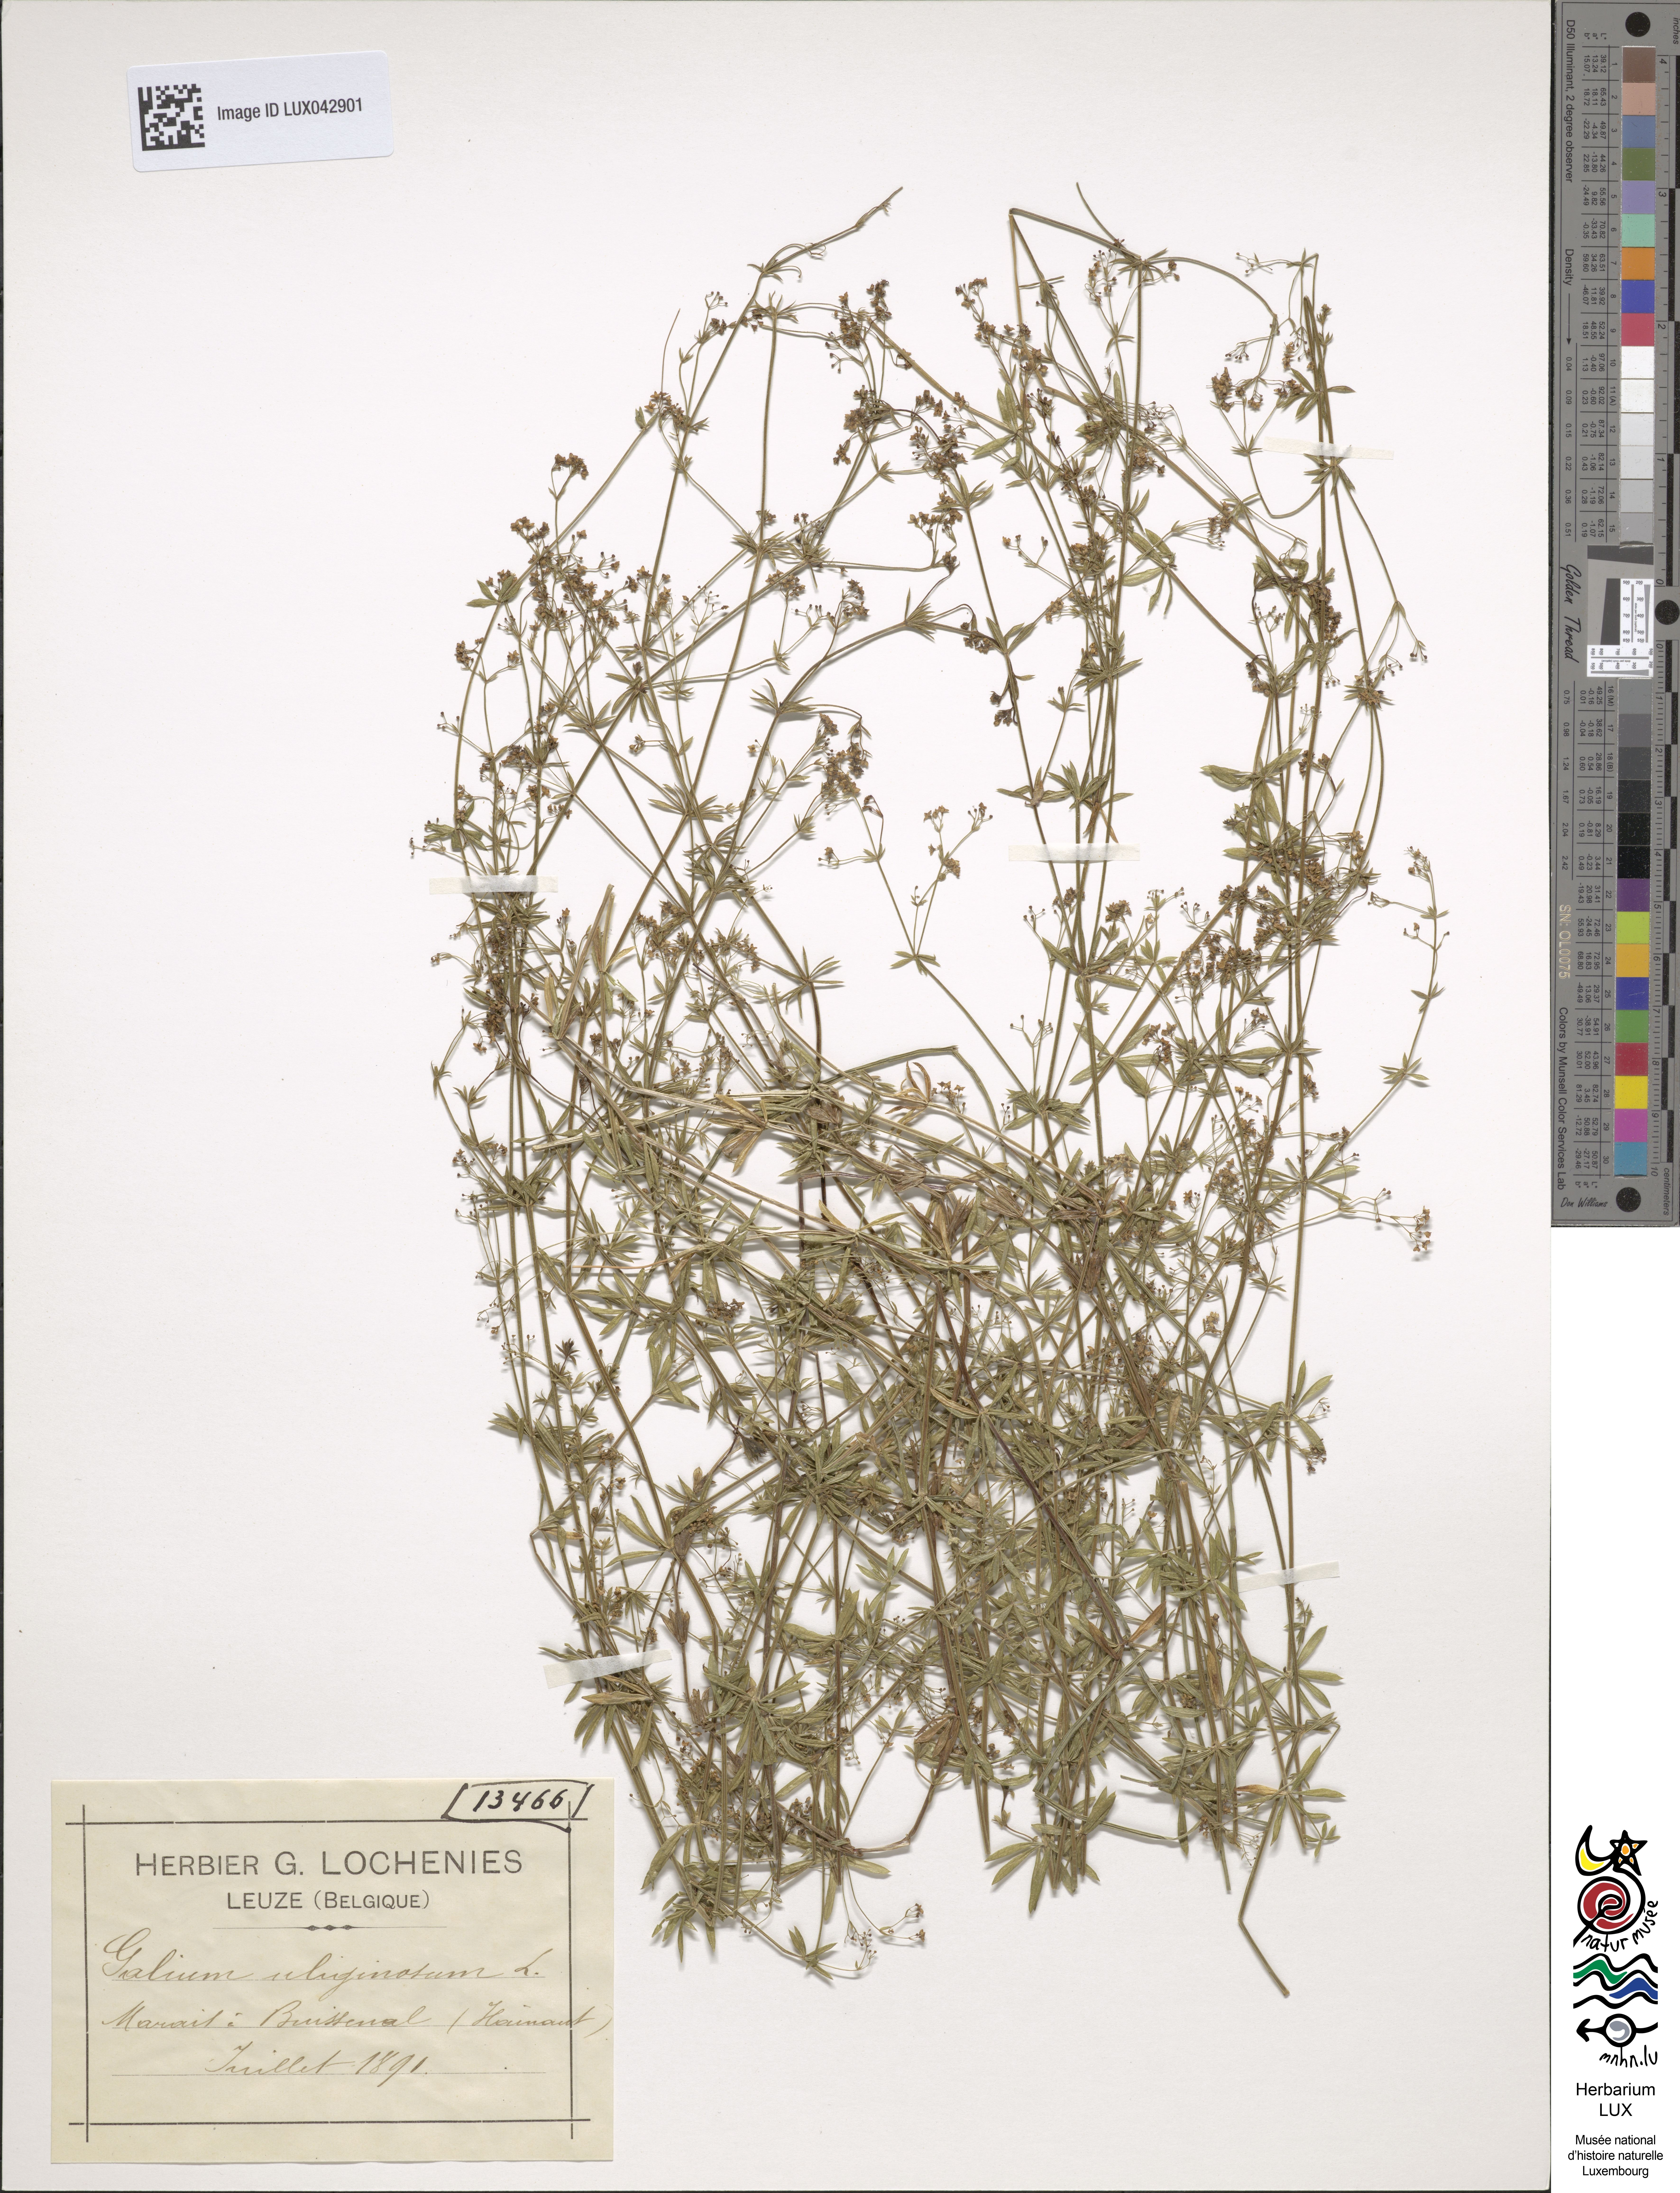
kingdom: Plantae
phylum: Tracheophyta
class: Magnoliopsida
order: Gentianales
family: Rubiaceae
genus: Galium
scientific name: Galium uliginosum
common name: Fen bedstraw
